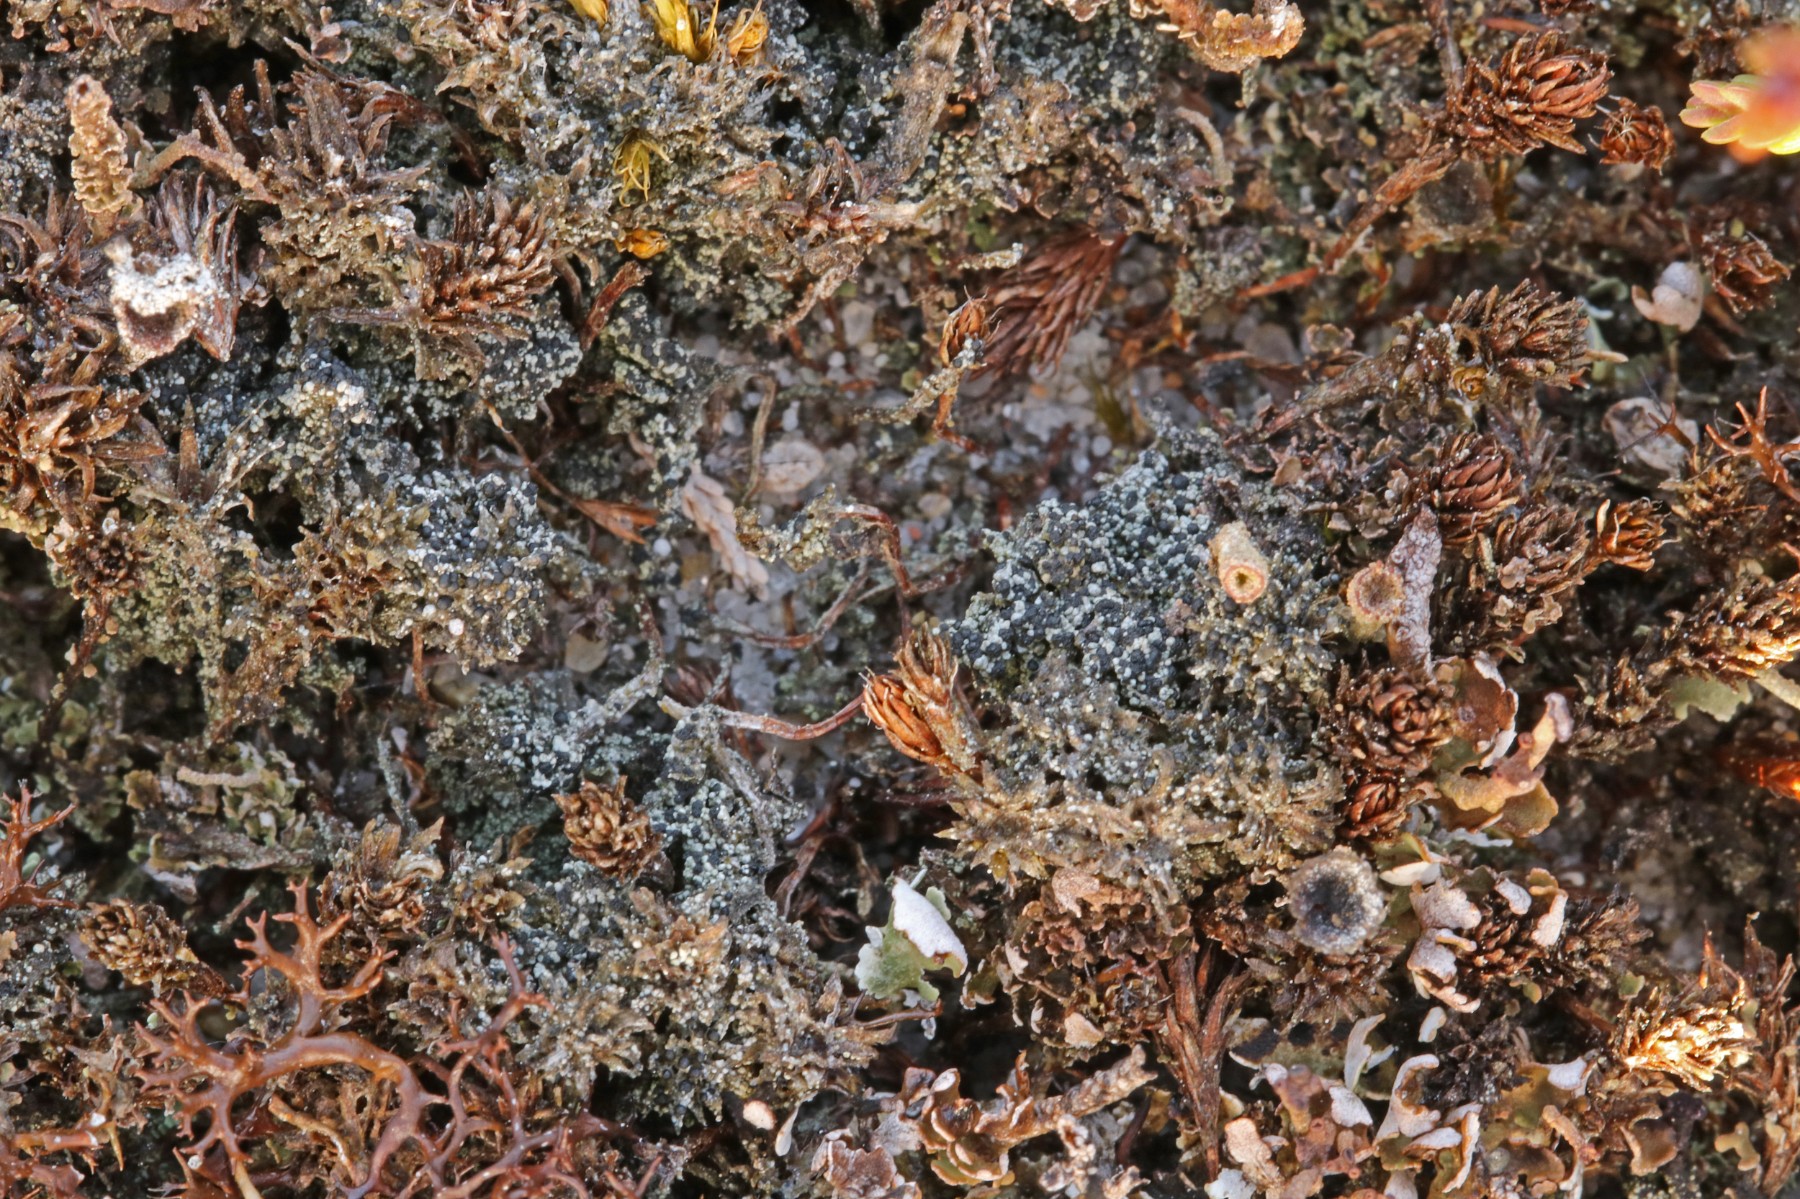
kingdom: Fungi
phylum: Ascomycota
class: Lecanoromycetes
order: Lecanorales
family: Byssolomataceae
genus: Micarea
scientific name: Micarea lignaria
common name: tørve-knaplav
